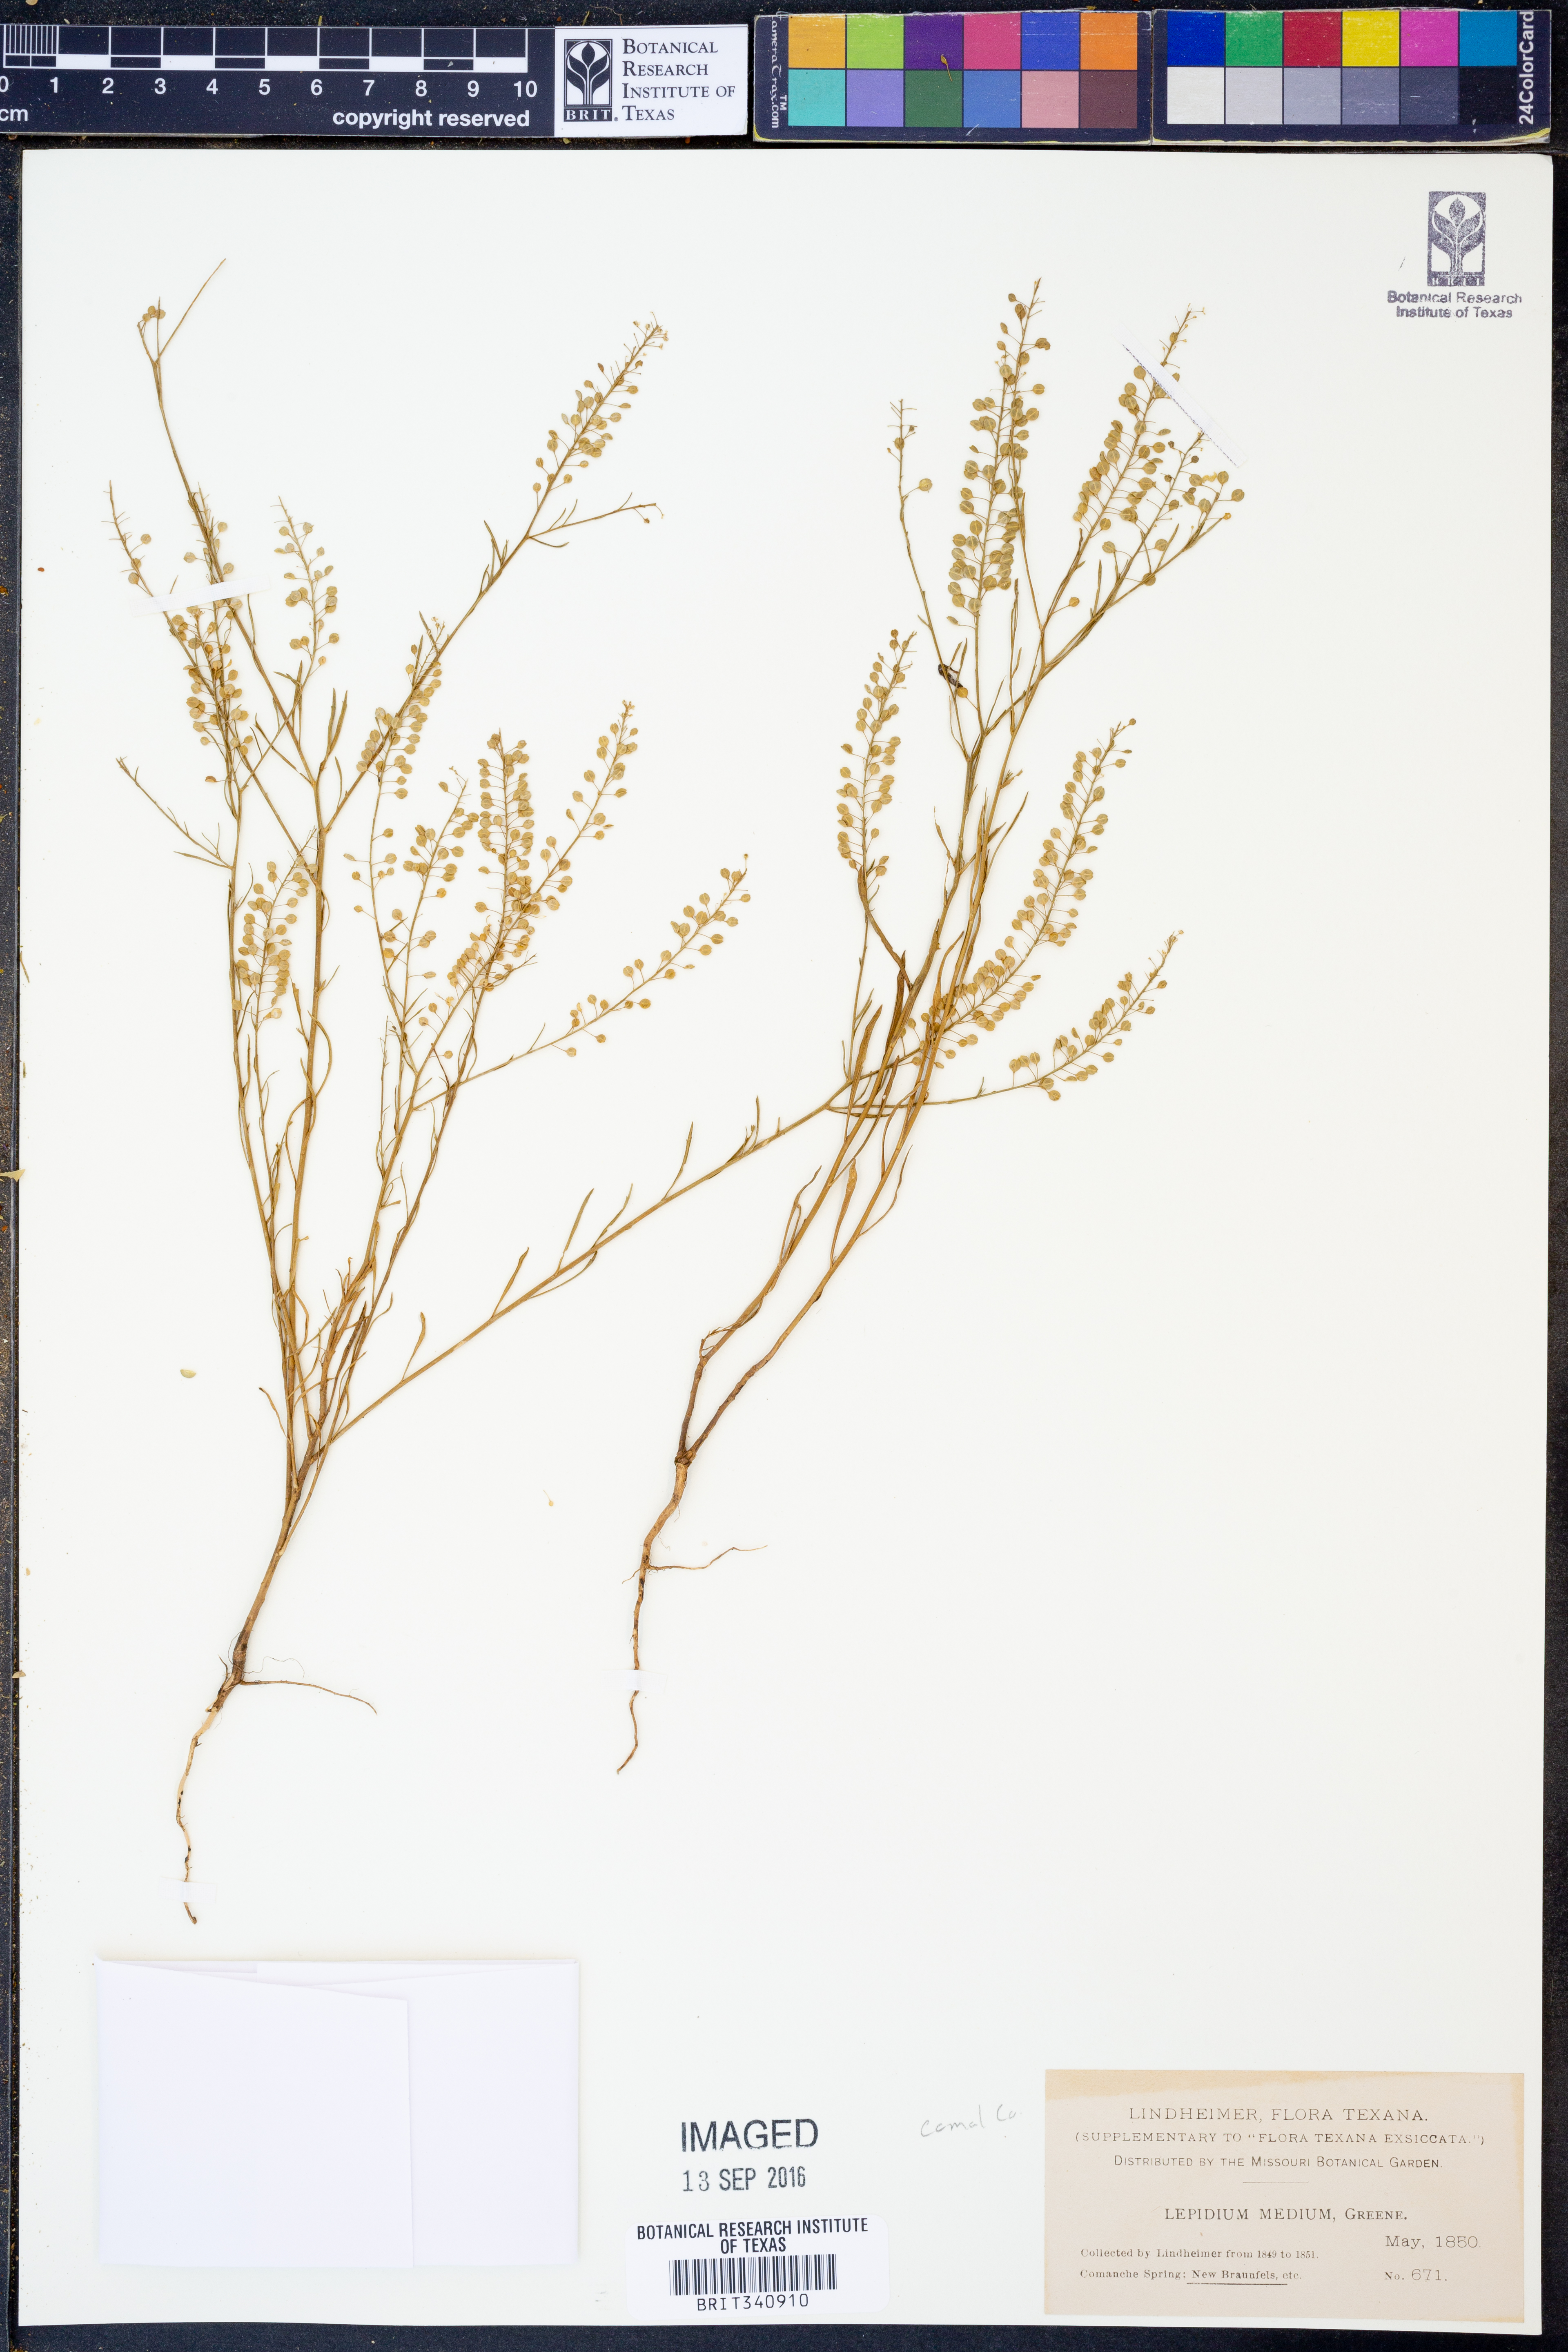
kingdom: Plantae
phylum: Tracheophyta
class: Magnoliopsida
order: Brassicales
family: Brassicaceae
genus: Lepidium
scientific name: Lepidium virginicum
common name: Least pepperwort
